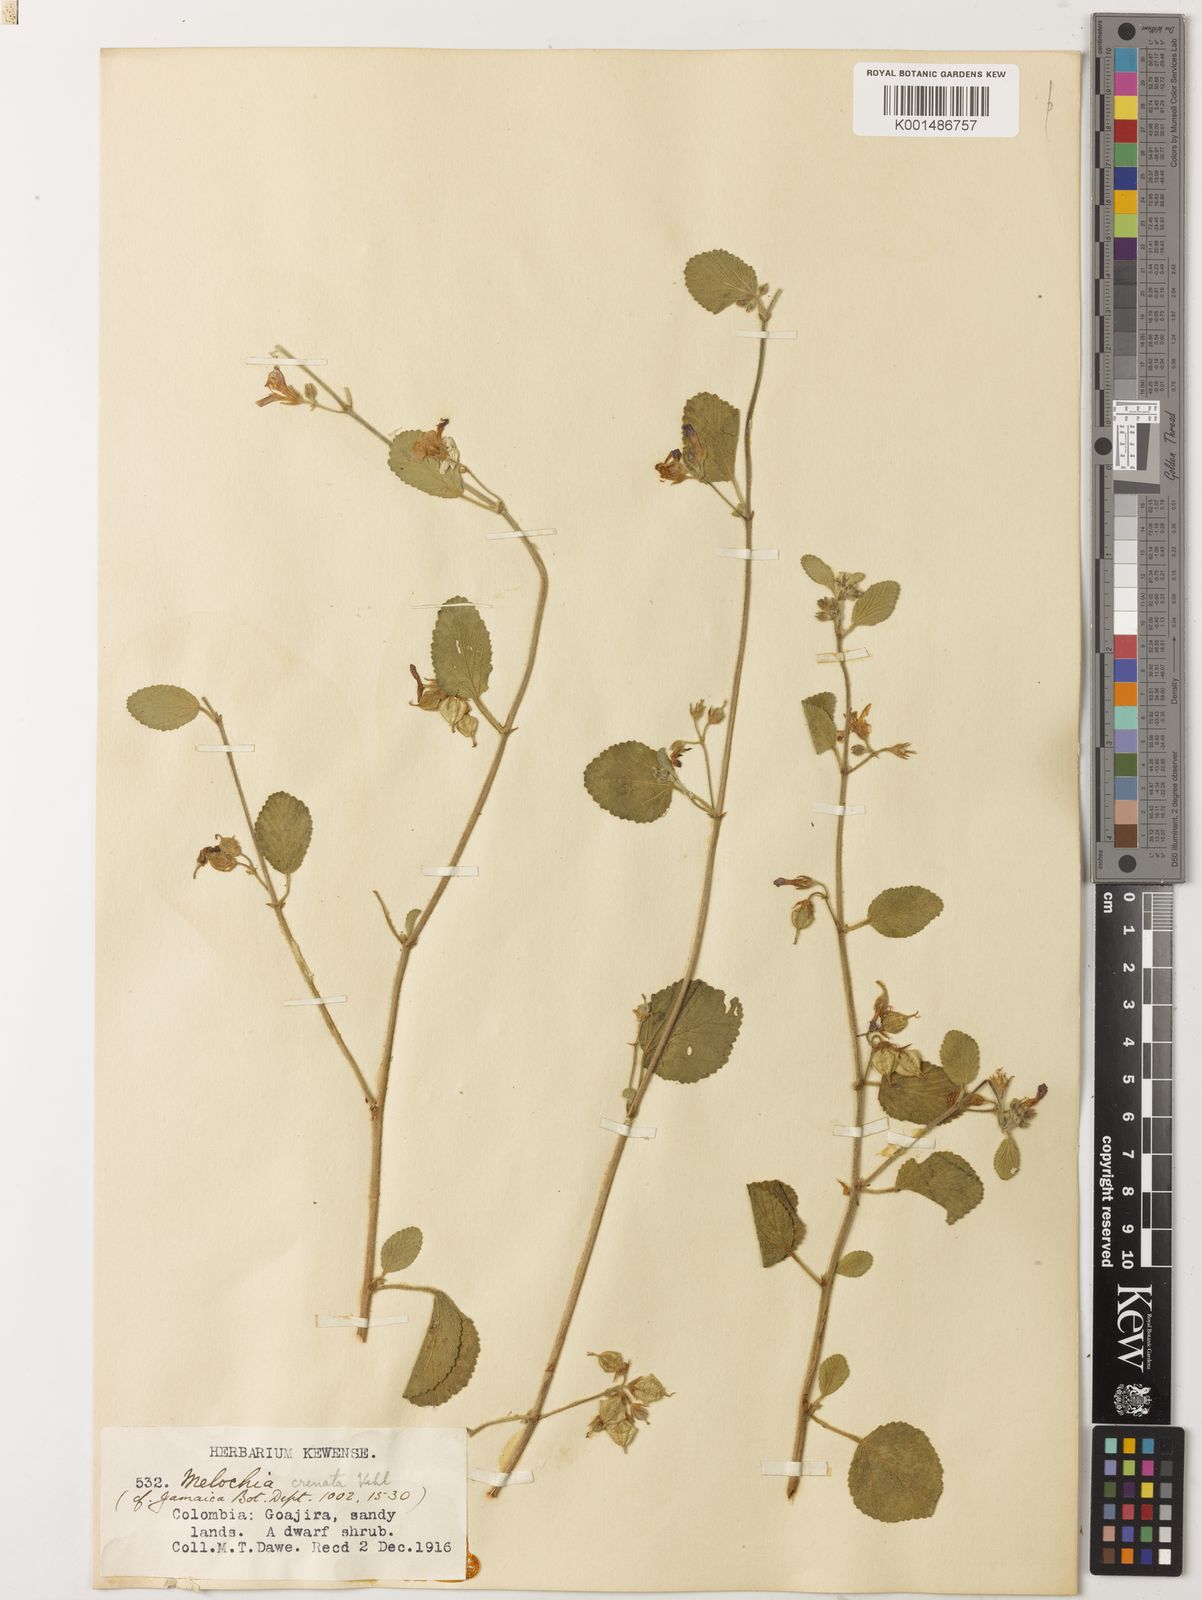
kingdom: Plantae
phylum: Tracheophyta
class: Magnoliopsida
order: Malvales
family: Malvaceae
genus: Melochia
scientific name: Melochia crenata
